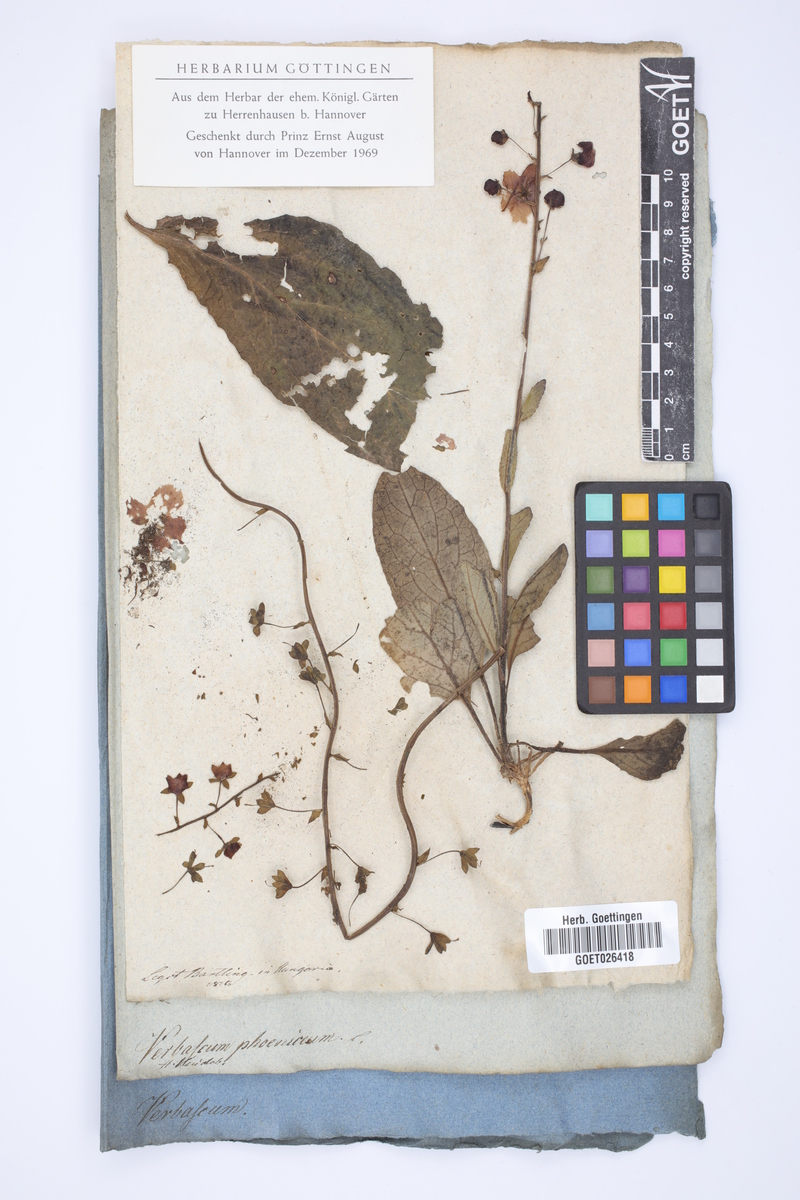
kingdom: Plantae
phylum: Tracheophyta
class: Magnoliopsida
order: Lamiales
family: Scrophulariaceae
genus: Verbascum
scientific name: Verbascum phoeniceum
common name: Purple mullein
